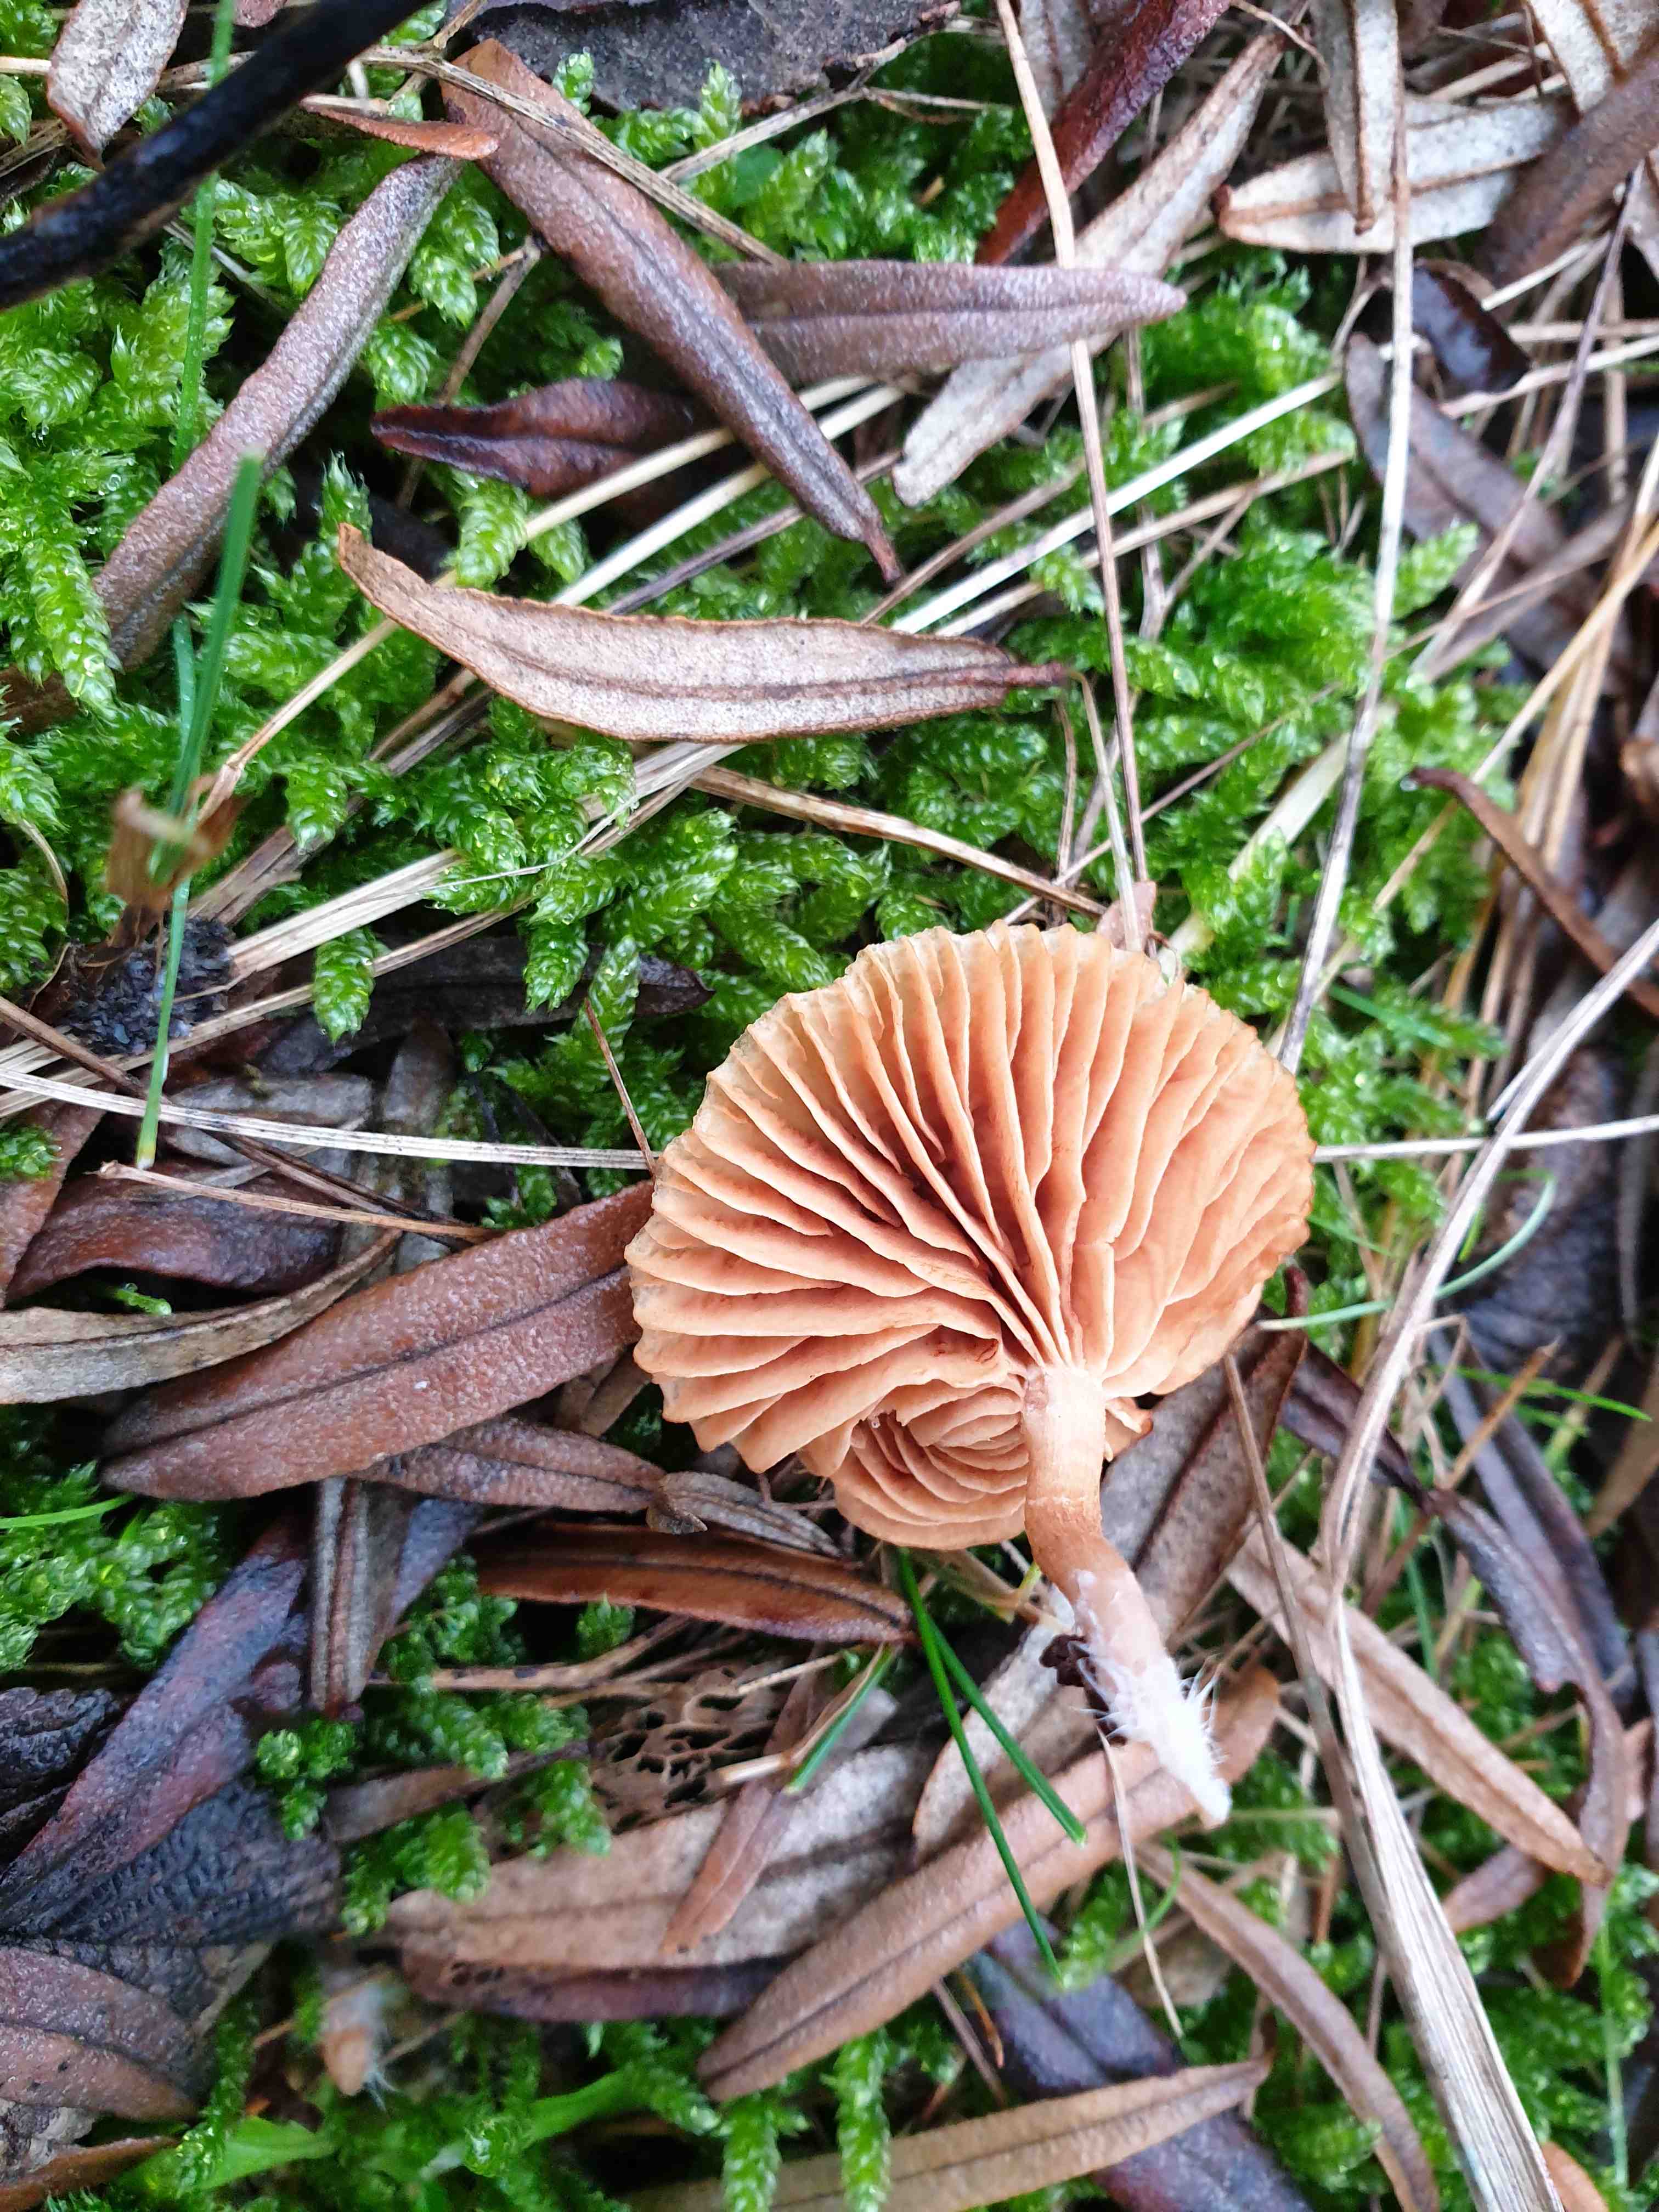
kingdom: Fungi
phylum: Basidiomycota
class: Agaricomycetes
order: Agaricales
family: Tubariaceae
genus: Tubaria
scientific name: Tubaria
